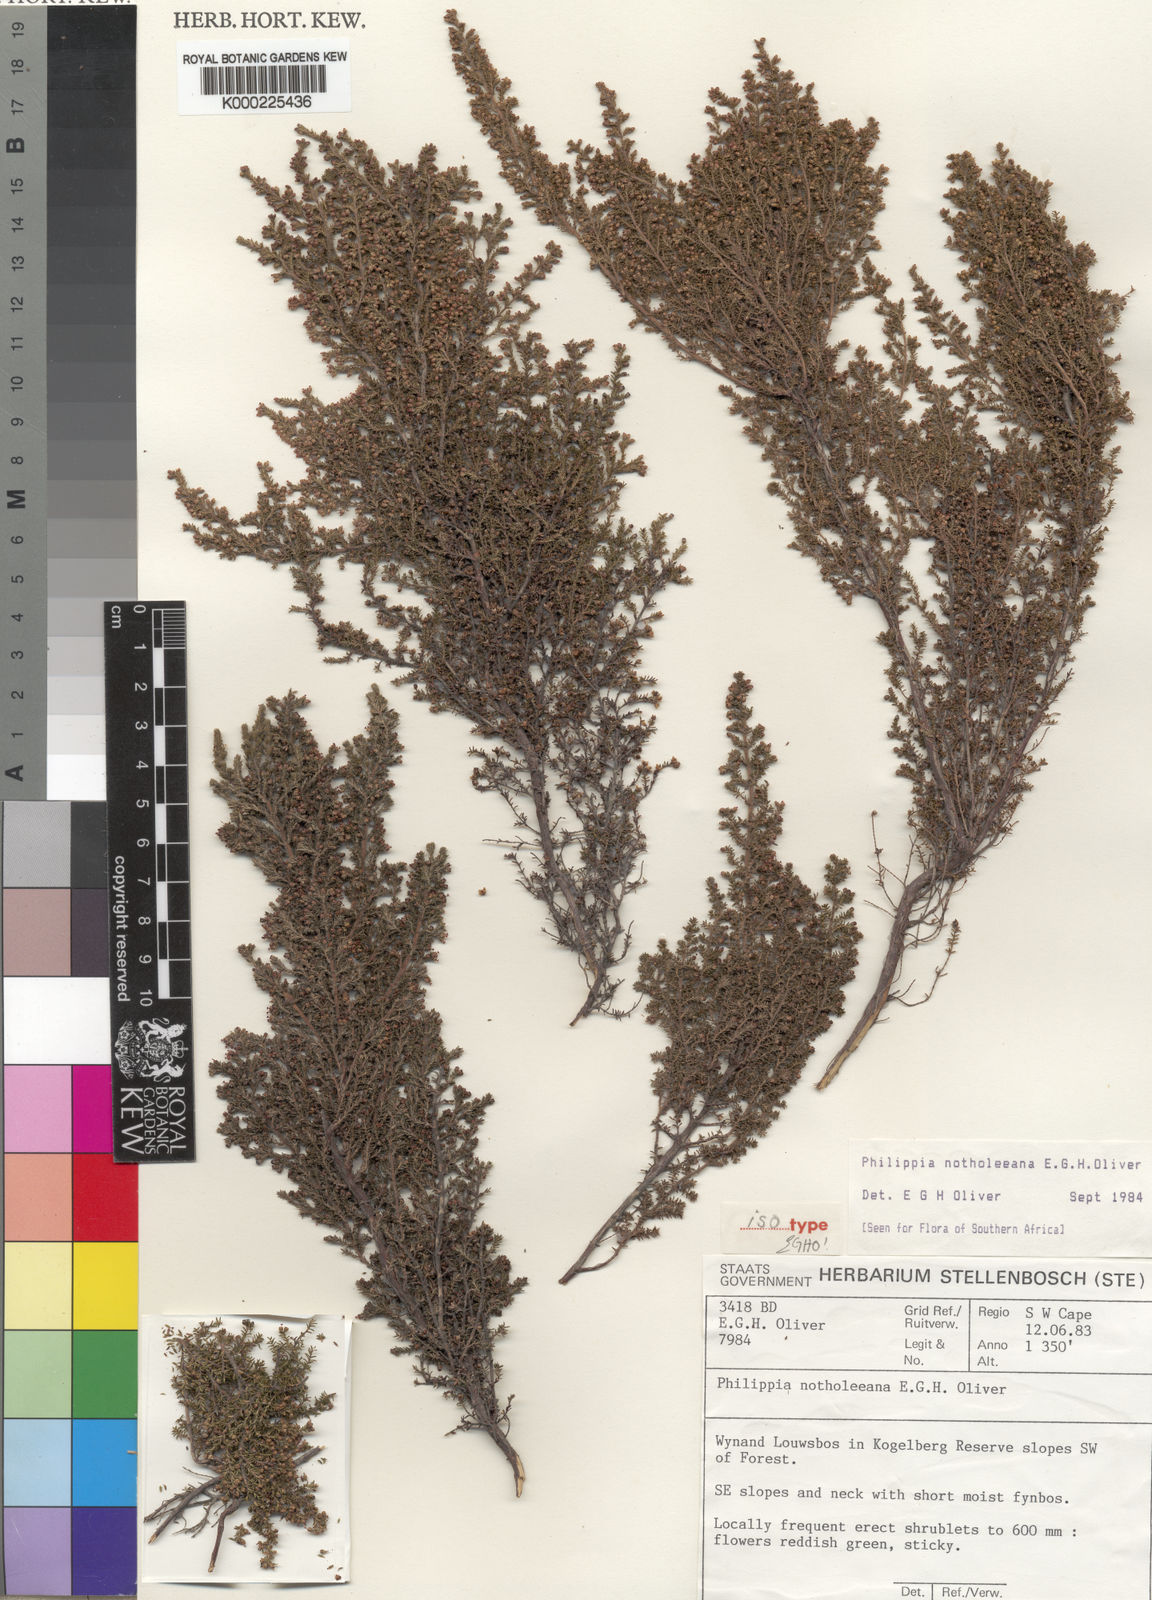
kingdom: Plantae
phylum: Tracheophyta
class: Magnoliopsida
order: Ericales
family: Ericaceae
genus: Erica
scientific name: Erica notholeeana
